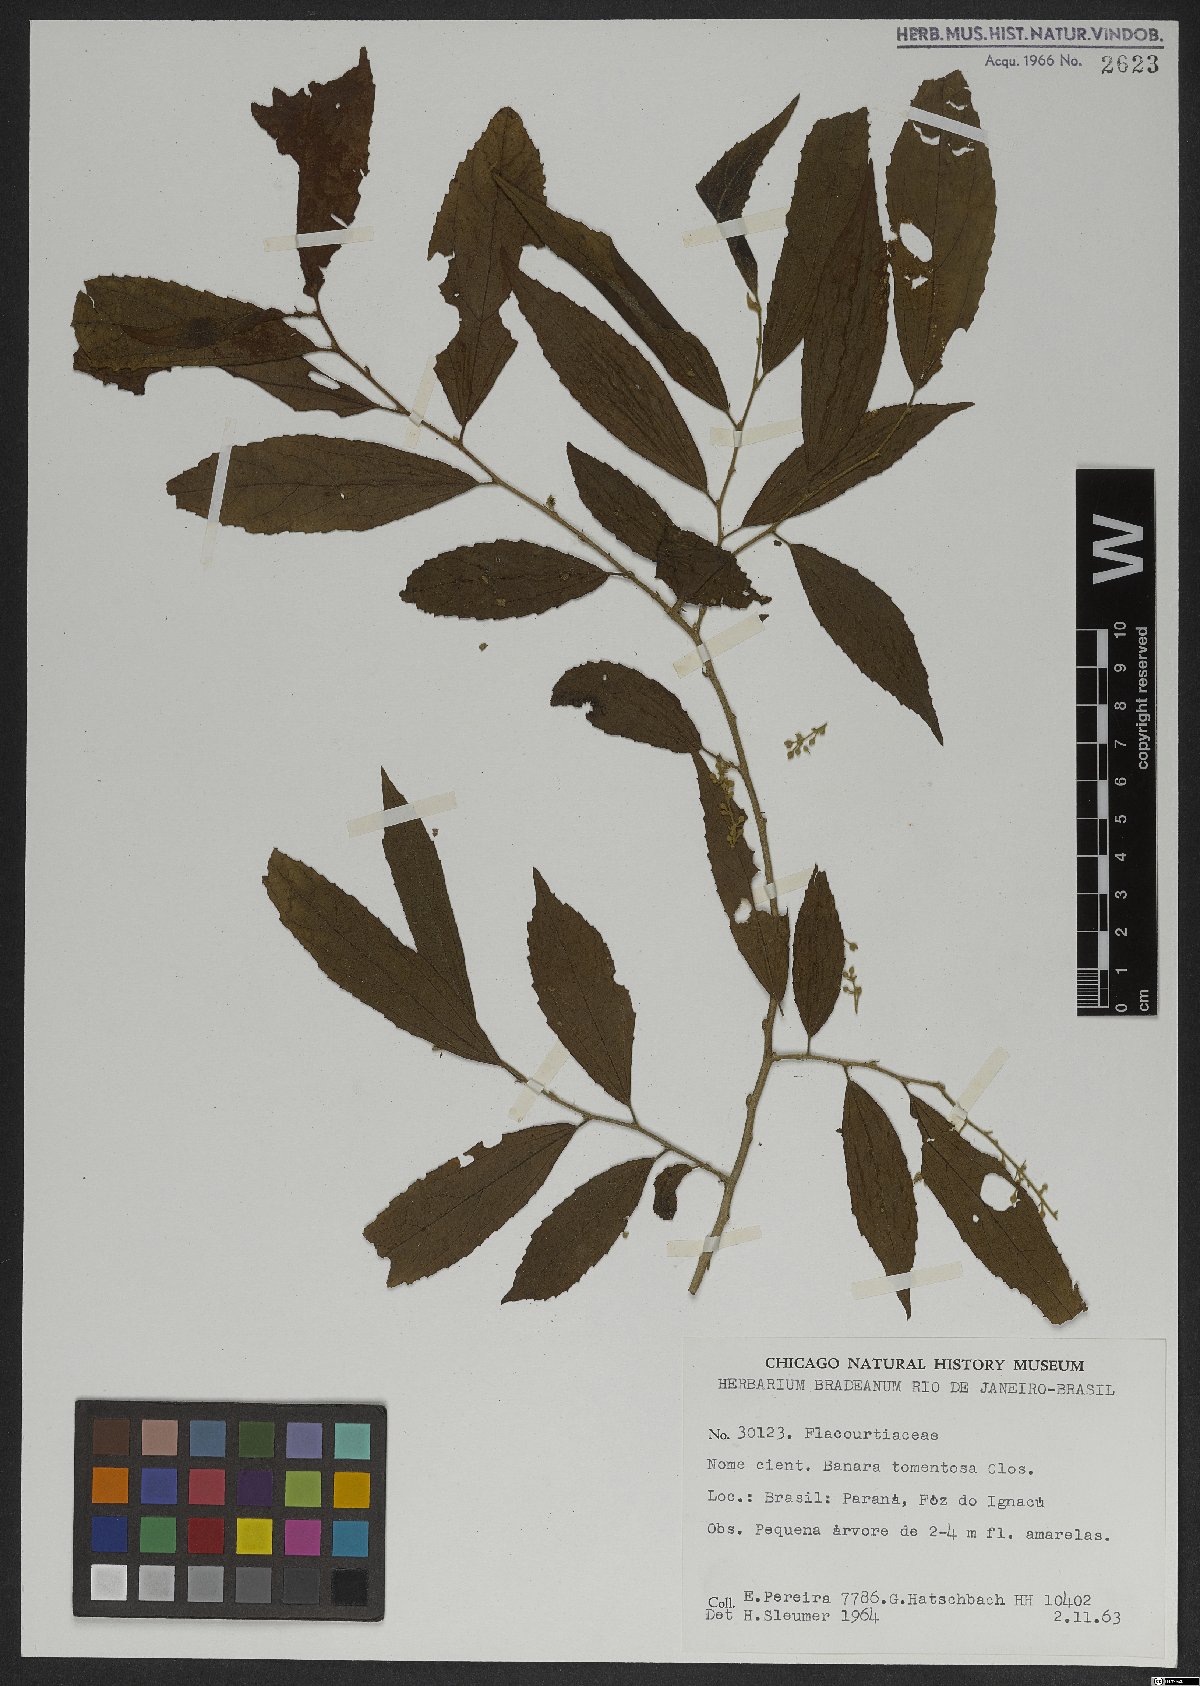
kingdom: Plantae
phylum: Tracheophyta
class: Magnoliopsida
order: Malpighiales
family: Salicaceae
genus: Banara
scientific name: Banara tomentosa
